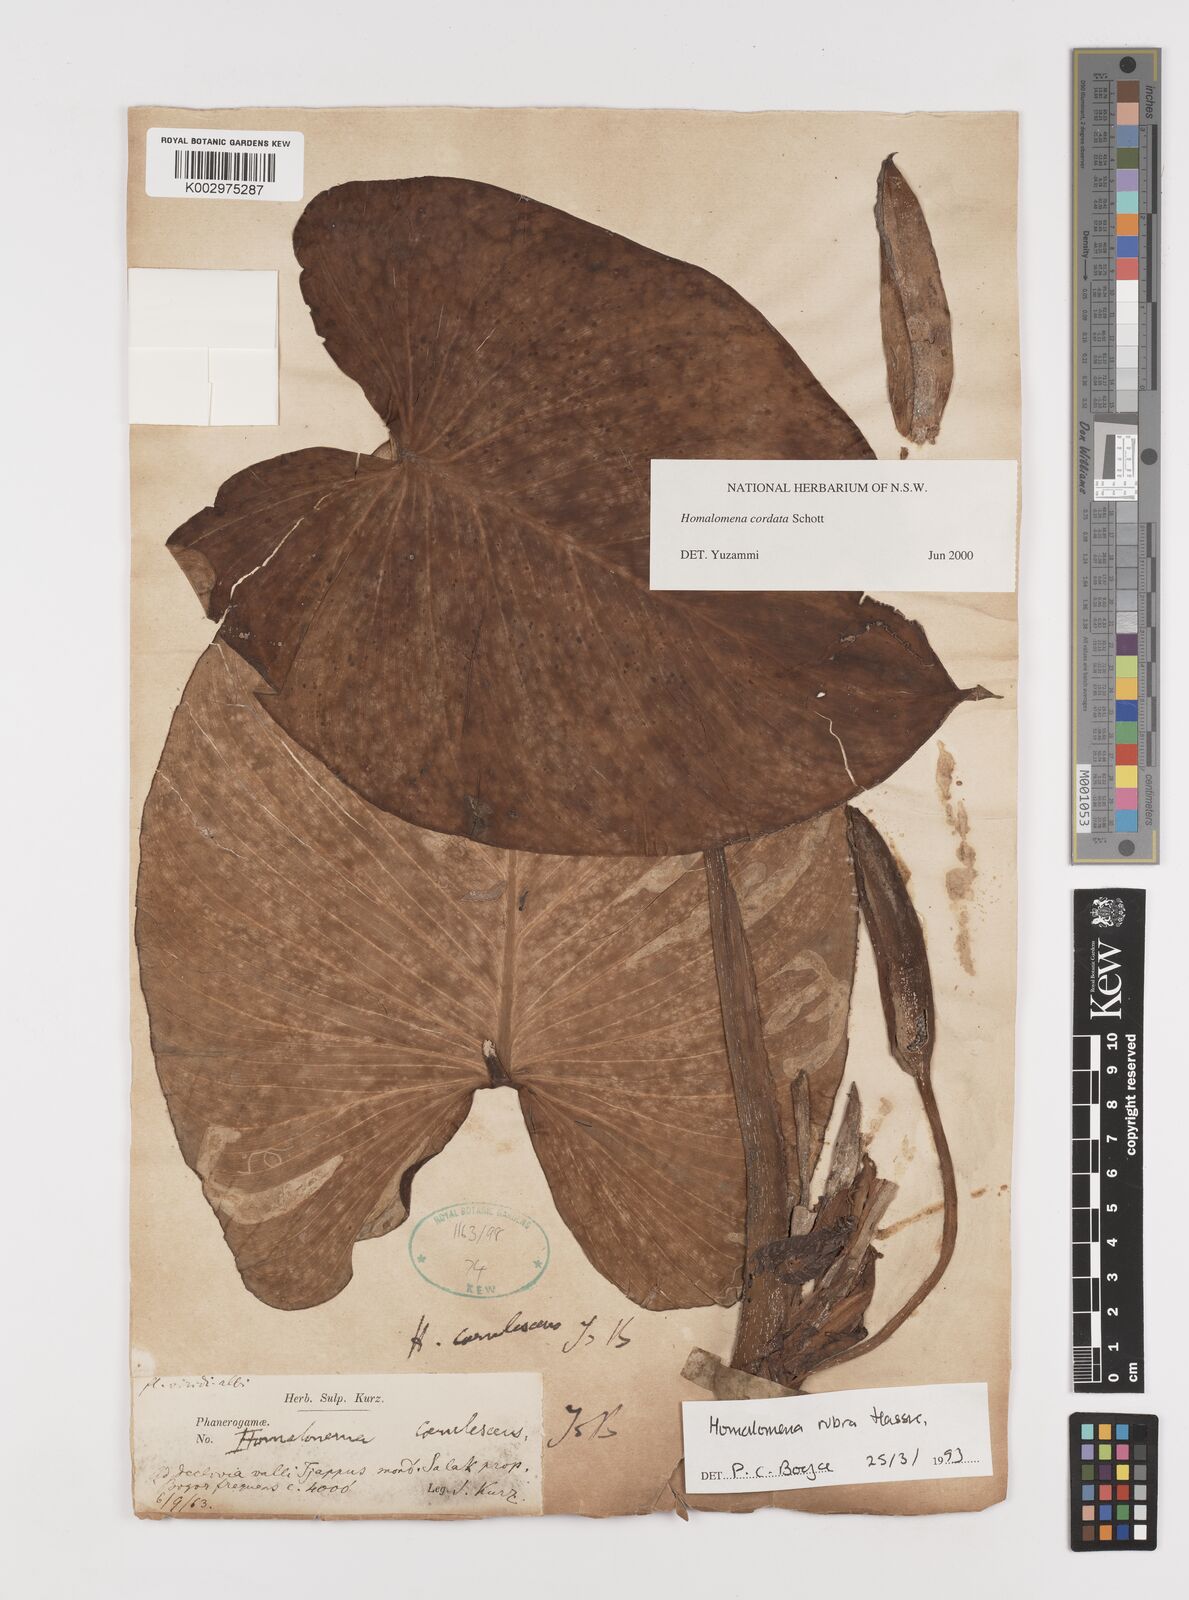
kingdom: Plantae
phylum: Tracheophyta
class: Liliopsida
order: Alismatales
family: Araceae
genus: Homalomena
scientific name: Homalomena cordata
